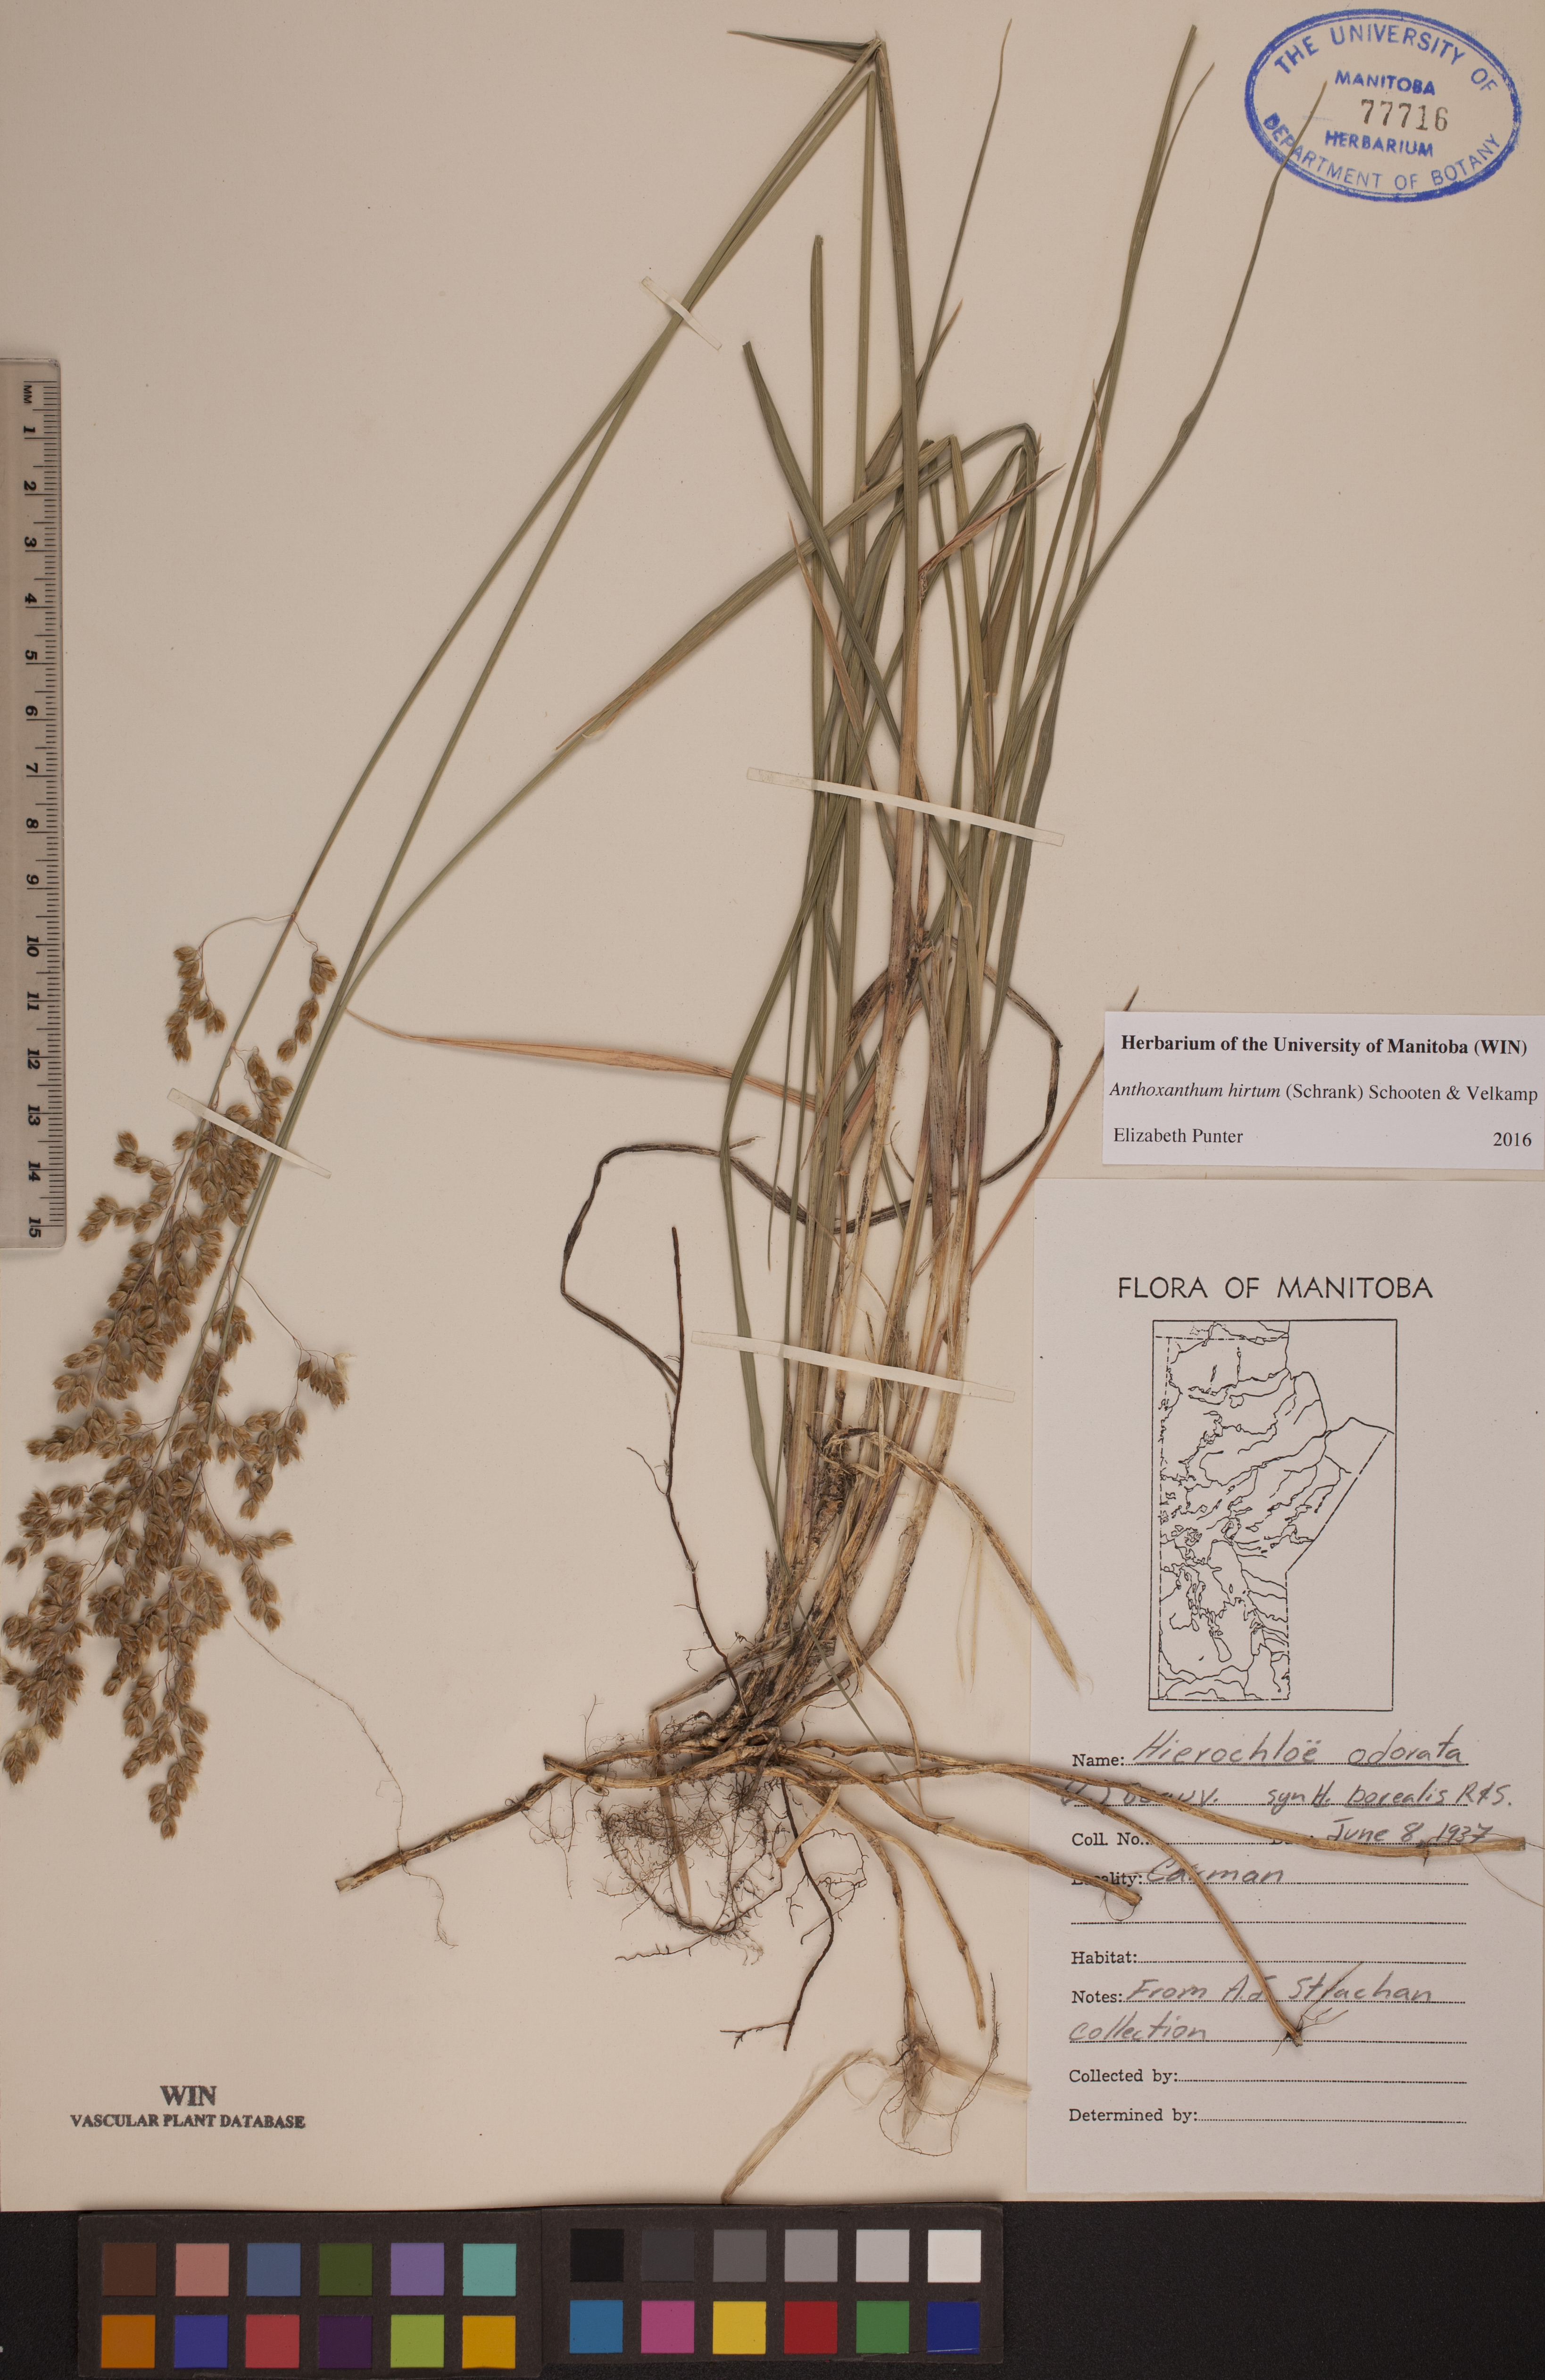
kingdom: Plantae
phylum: Tracheophyta
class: Liliopsida
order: Poales
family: Poaceae
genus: Anthoxanthum
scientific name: Anthoxanthum nitens
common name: Holy grass
